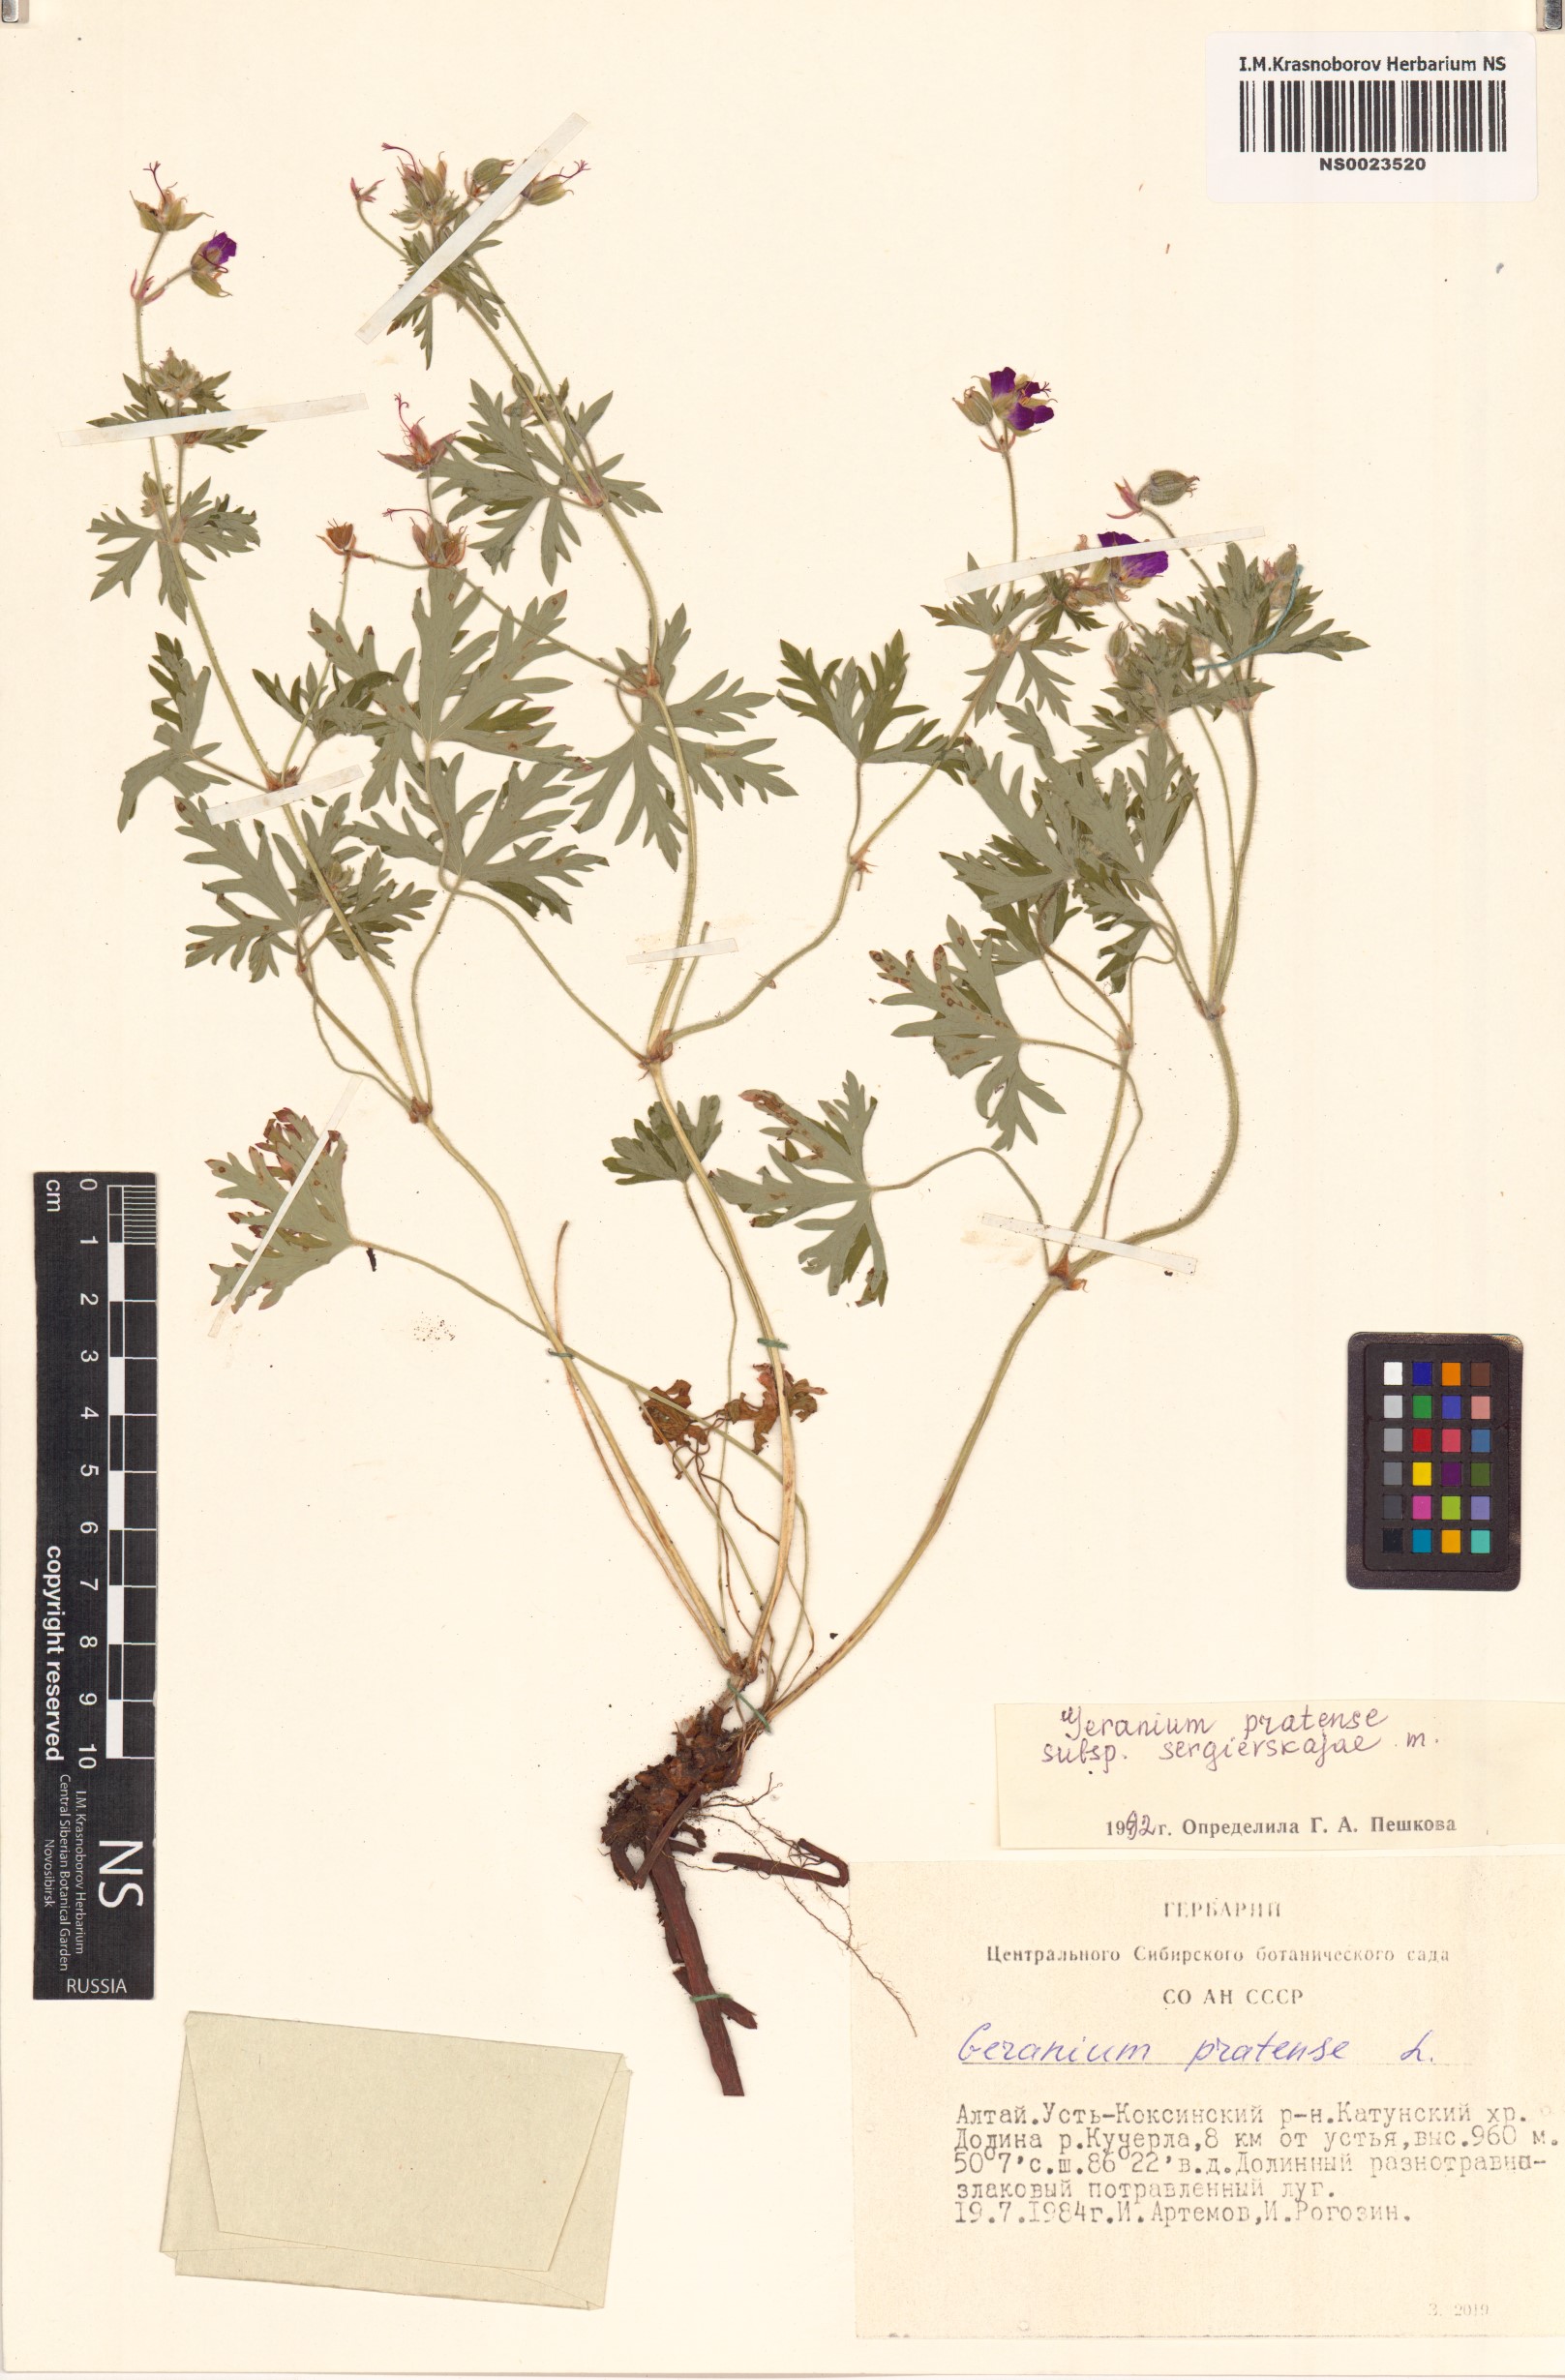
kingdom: Plantae
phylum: Tracheophyta
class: Magnoliopsida
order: Geraniales
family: Geraniaceae
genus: Geranium
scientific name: Geranium pratense
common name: Meadow crane's-bill
